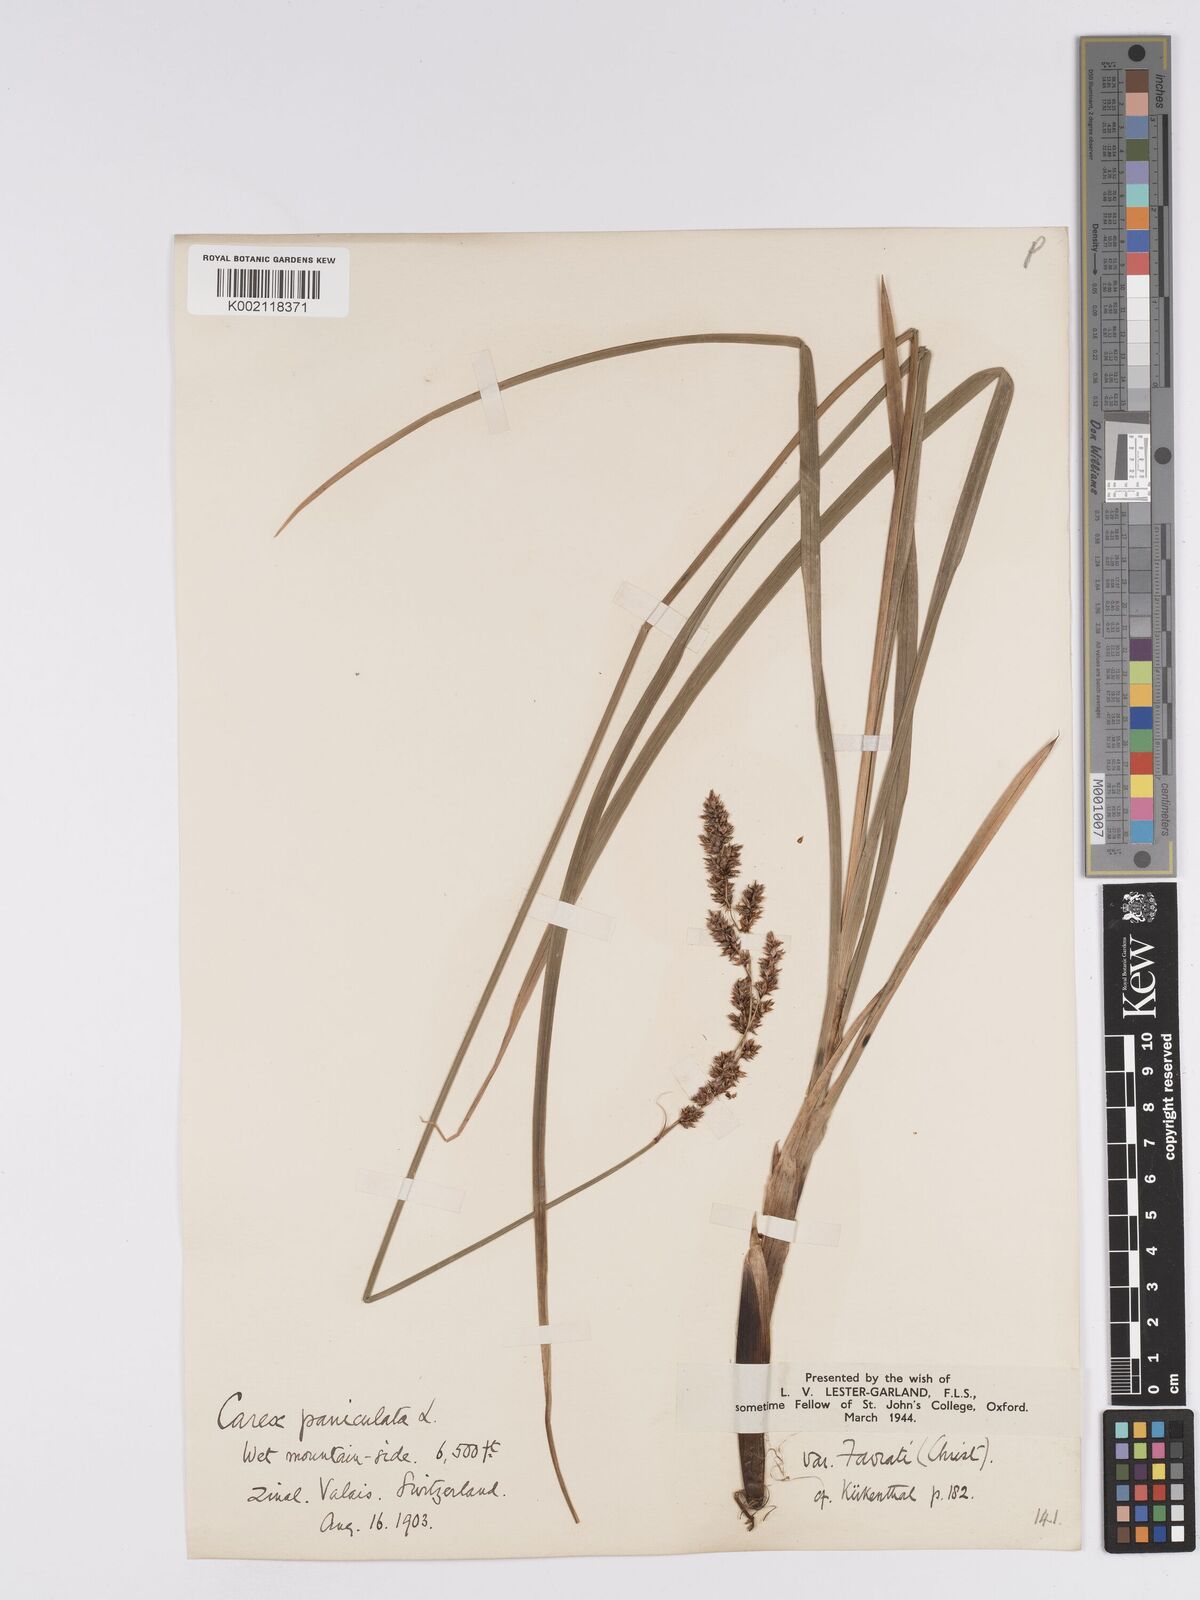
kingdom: Plantae
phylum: Tracheophyta
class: Liliopsida
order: Poales
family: Cyperaceae
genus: Carex
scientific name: Carex paniculata
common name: Greater tussock-sedge
